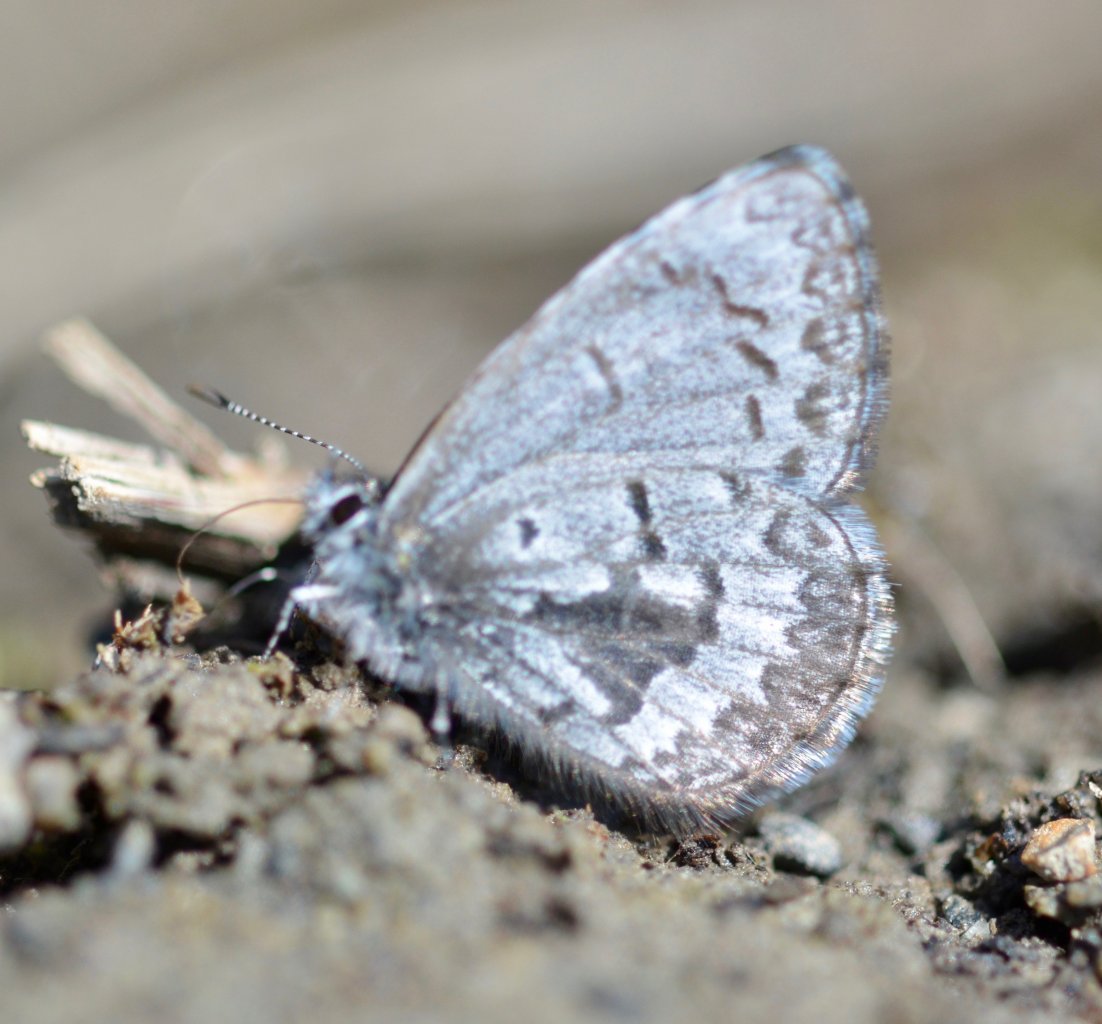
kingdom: Animalia
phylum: Arthropoda
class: Insecta
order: Lepidoptera
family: Lycaenidae
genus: Celastrina
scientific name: Celastrina lucia
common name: Northern Spring Azure
